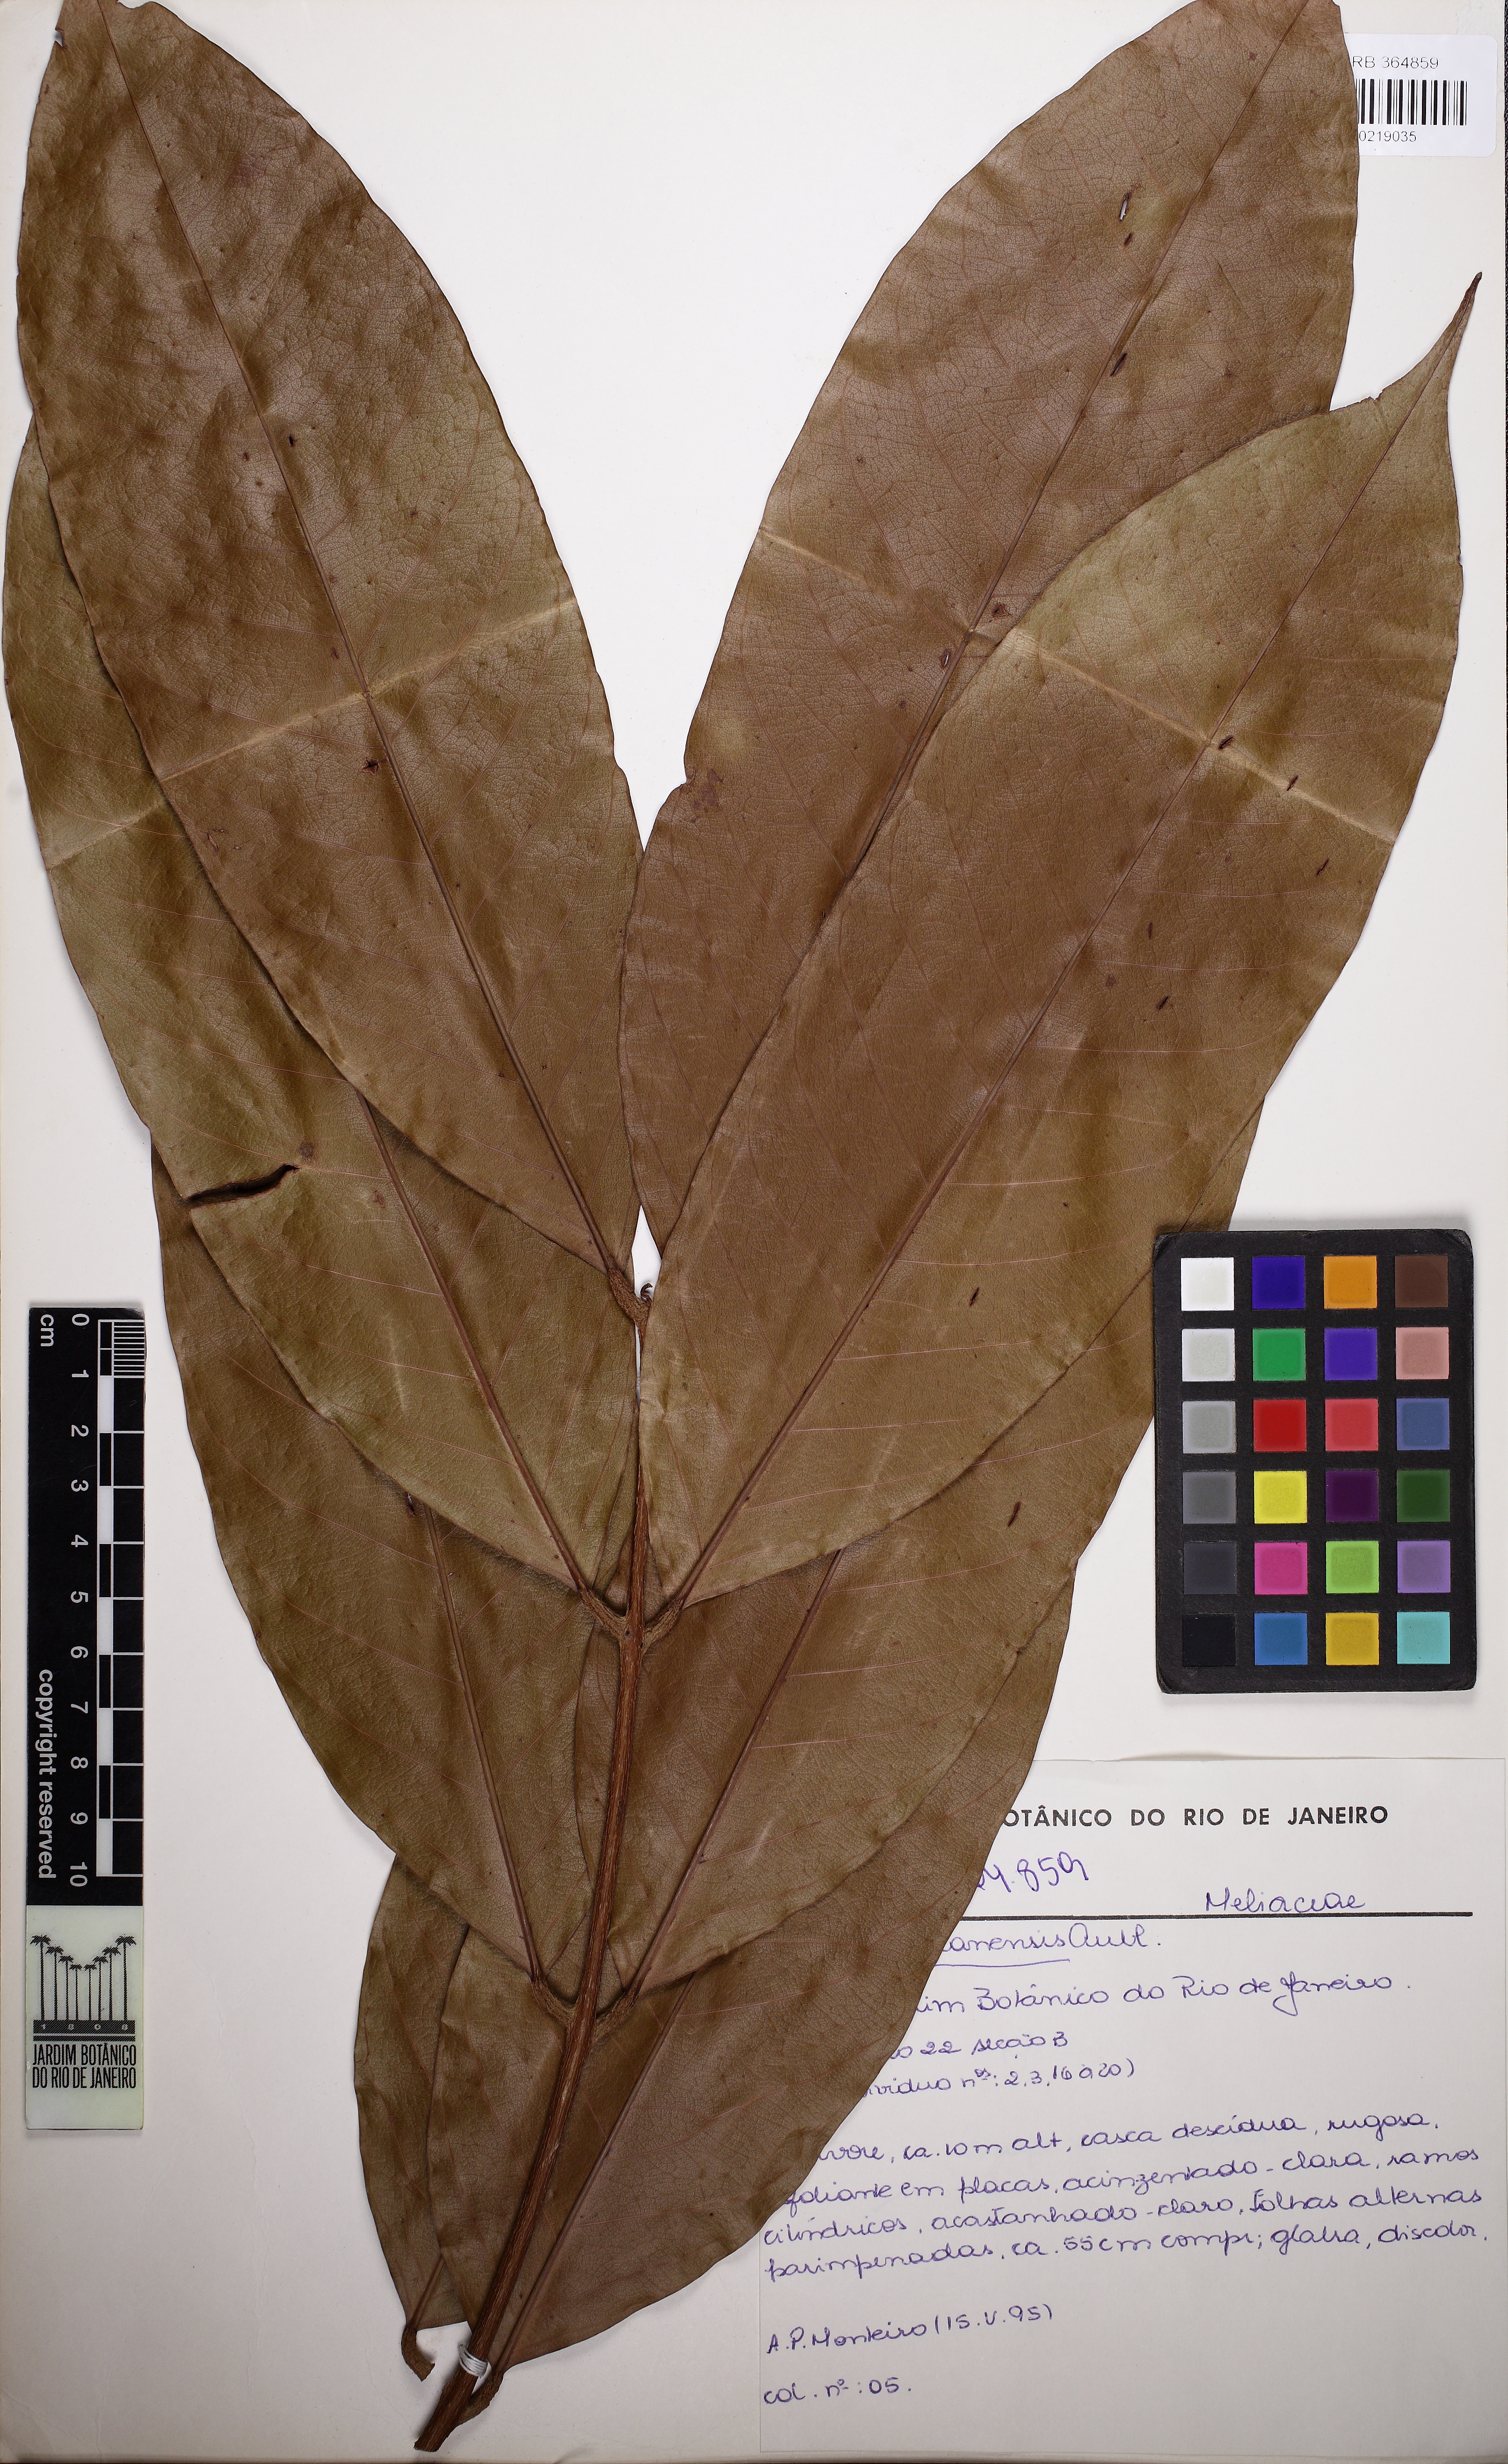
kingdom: Plantae
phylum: Tracheophyta
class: Magnoliopsida
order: Sapindales
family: Meliaceae
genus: Carapa
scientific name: Carapa guianensis
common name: Crabwood
